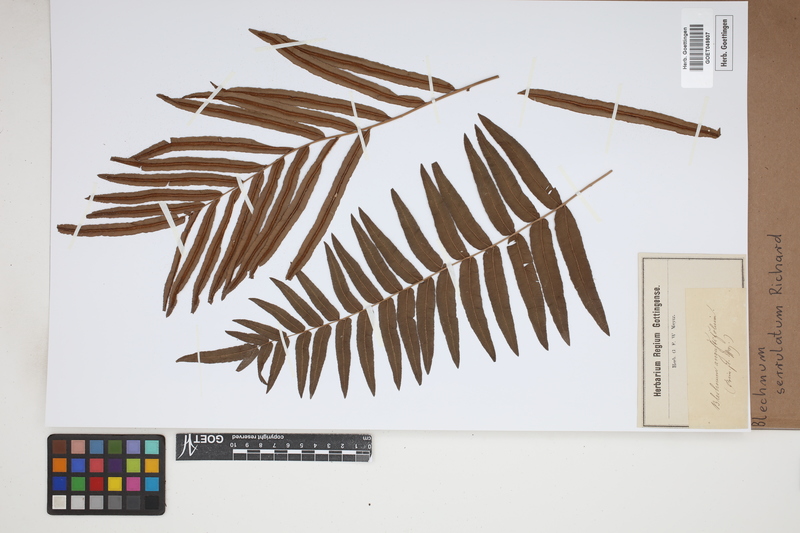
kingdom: Plantae
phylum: Tracheophyta
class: Polypodiopsida
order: Polypodiales
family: Blechnaceae
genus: Telmatoblechnum
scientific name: Telmatoblechnum serrulatum
